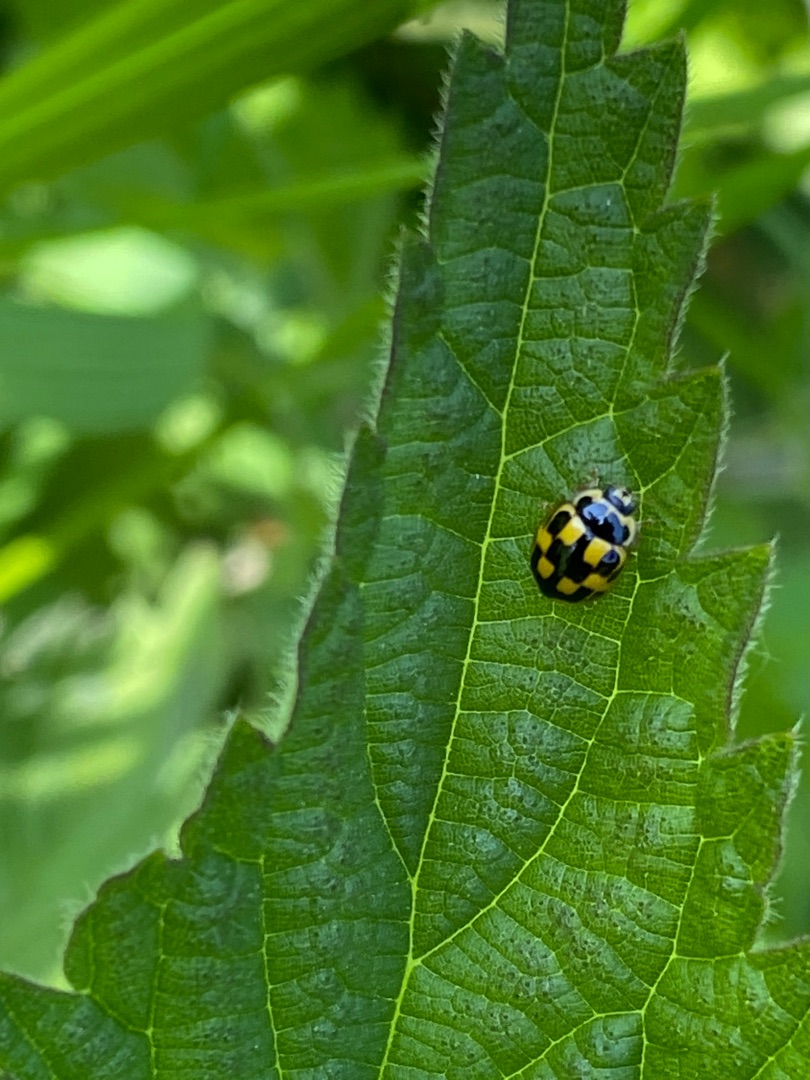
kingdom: Animalia
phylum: Arthropoda
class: Insecta
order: Coleoptera
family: Coccinellidae
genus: Propylaea
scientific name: Propylaea quatuordecimpunctata
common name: Skakbræt
